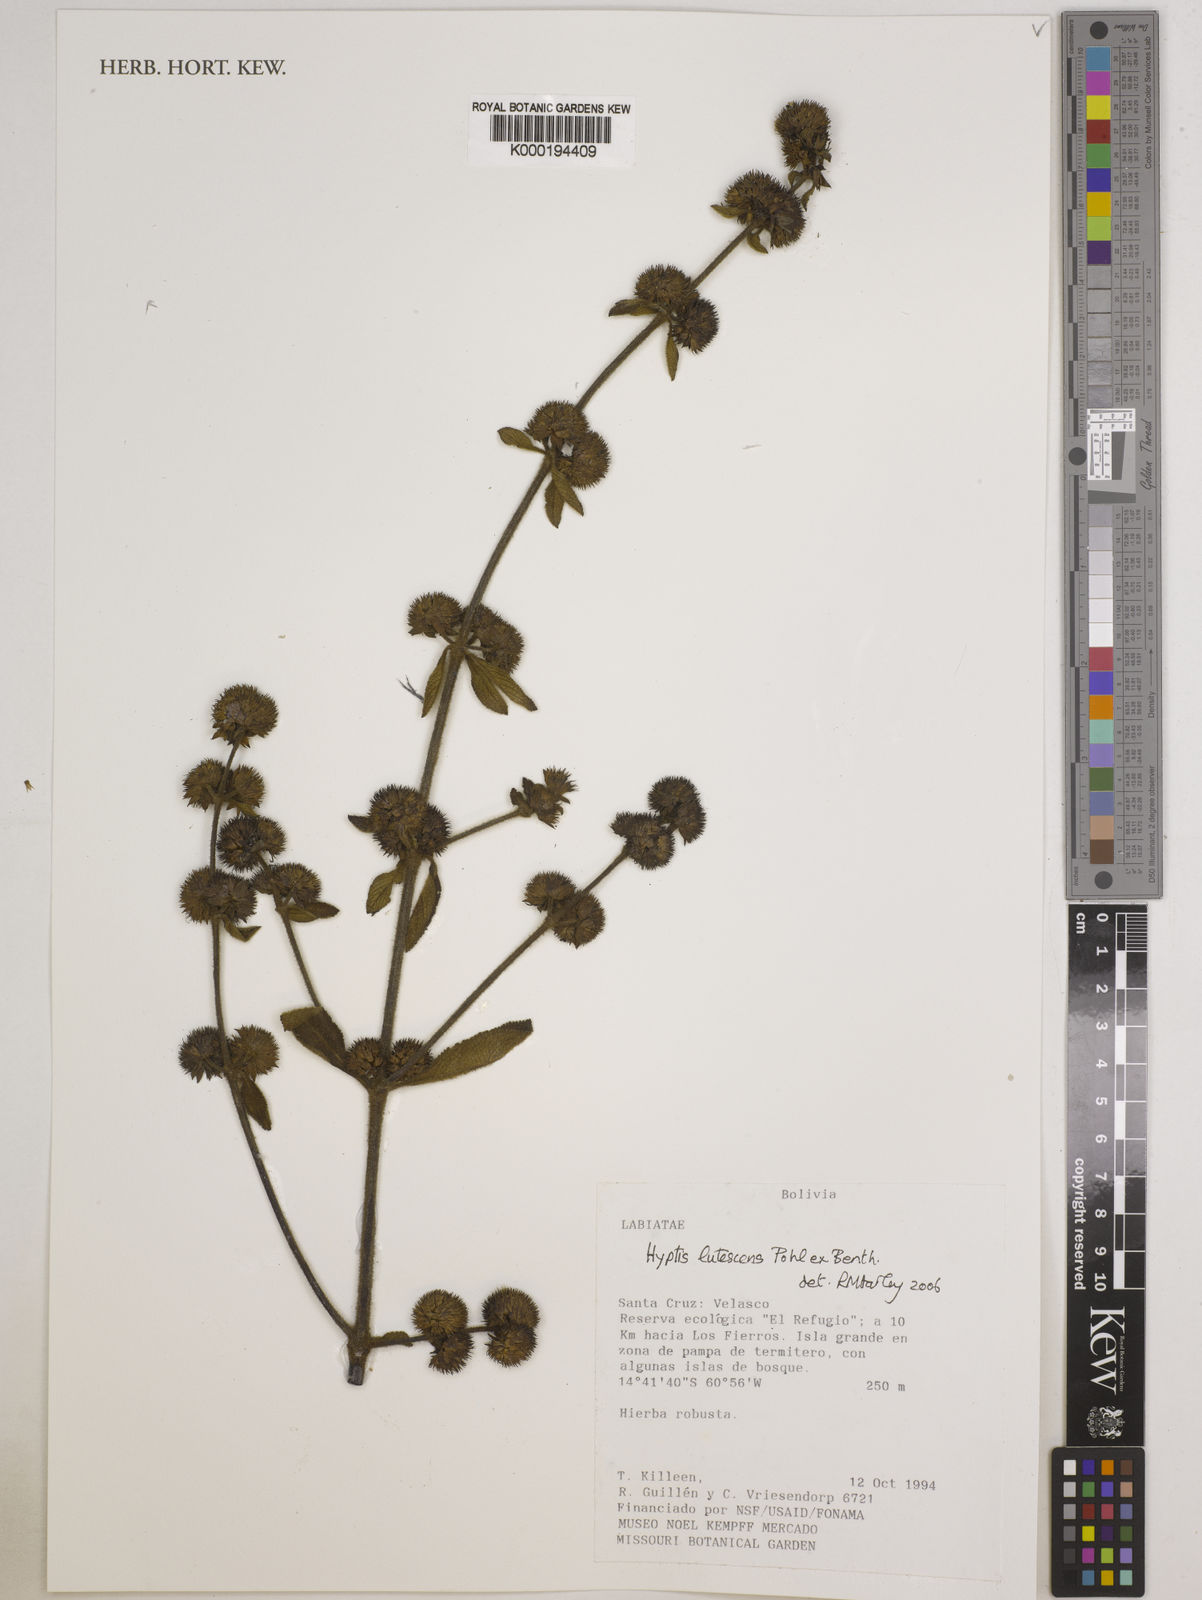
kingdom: Plantae
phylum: Tracheophyta
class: Magnoliopsida
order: Lamiales
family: Lamiaceae
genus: Hyptis
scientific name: Hyptis lutescens
